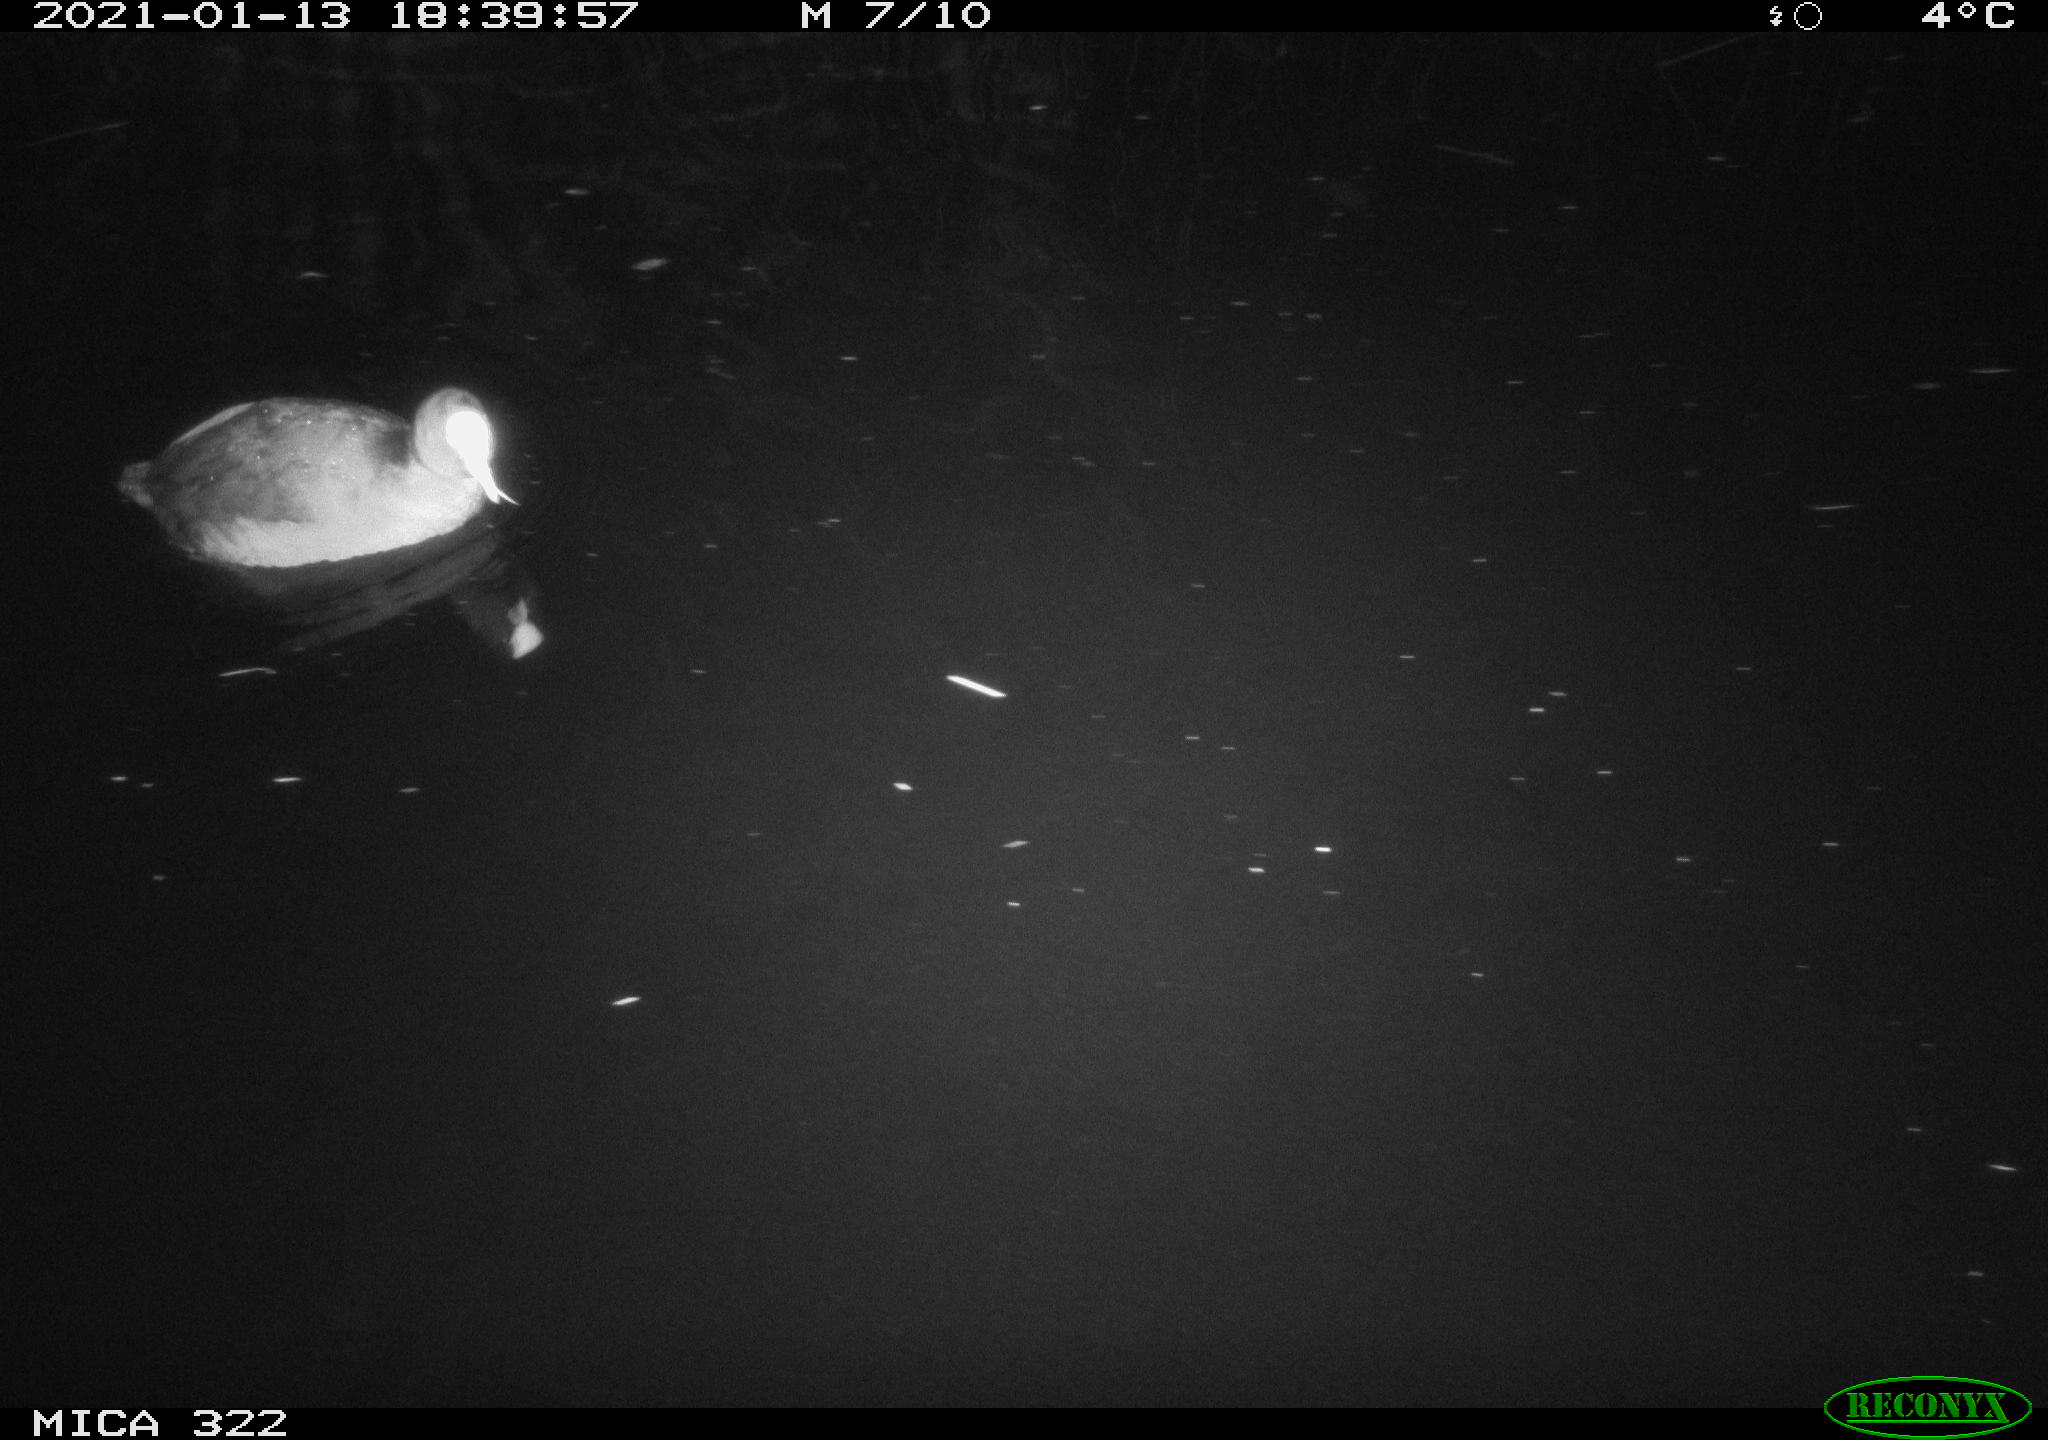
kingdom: Animalia
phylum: Chordata
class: Aves
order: Gruiformes
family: Rallidae
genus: Fulica
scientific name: Fulica atra
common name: Eurasian coot
